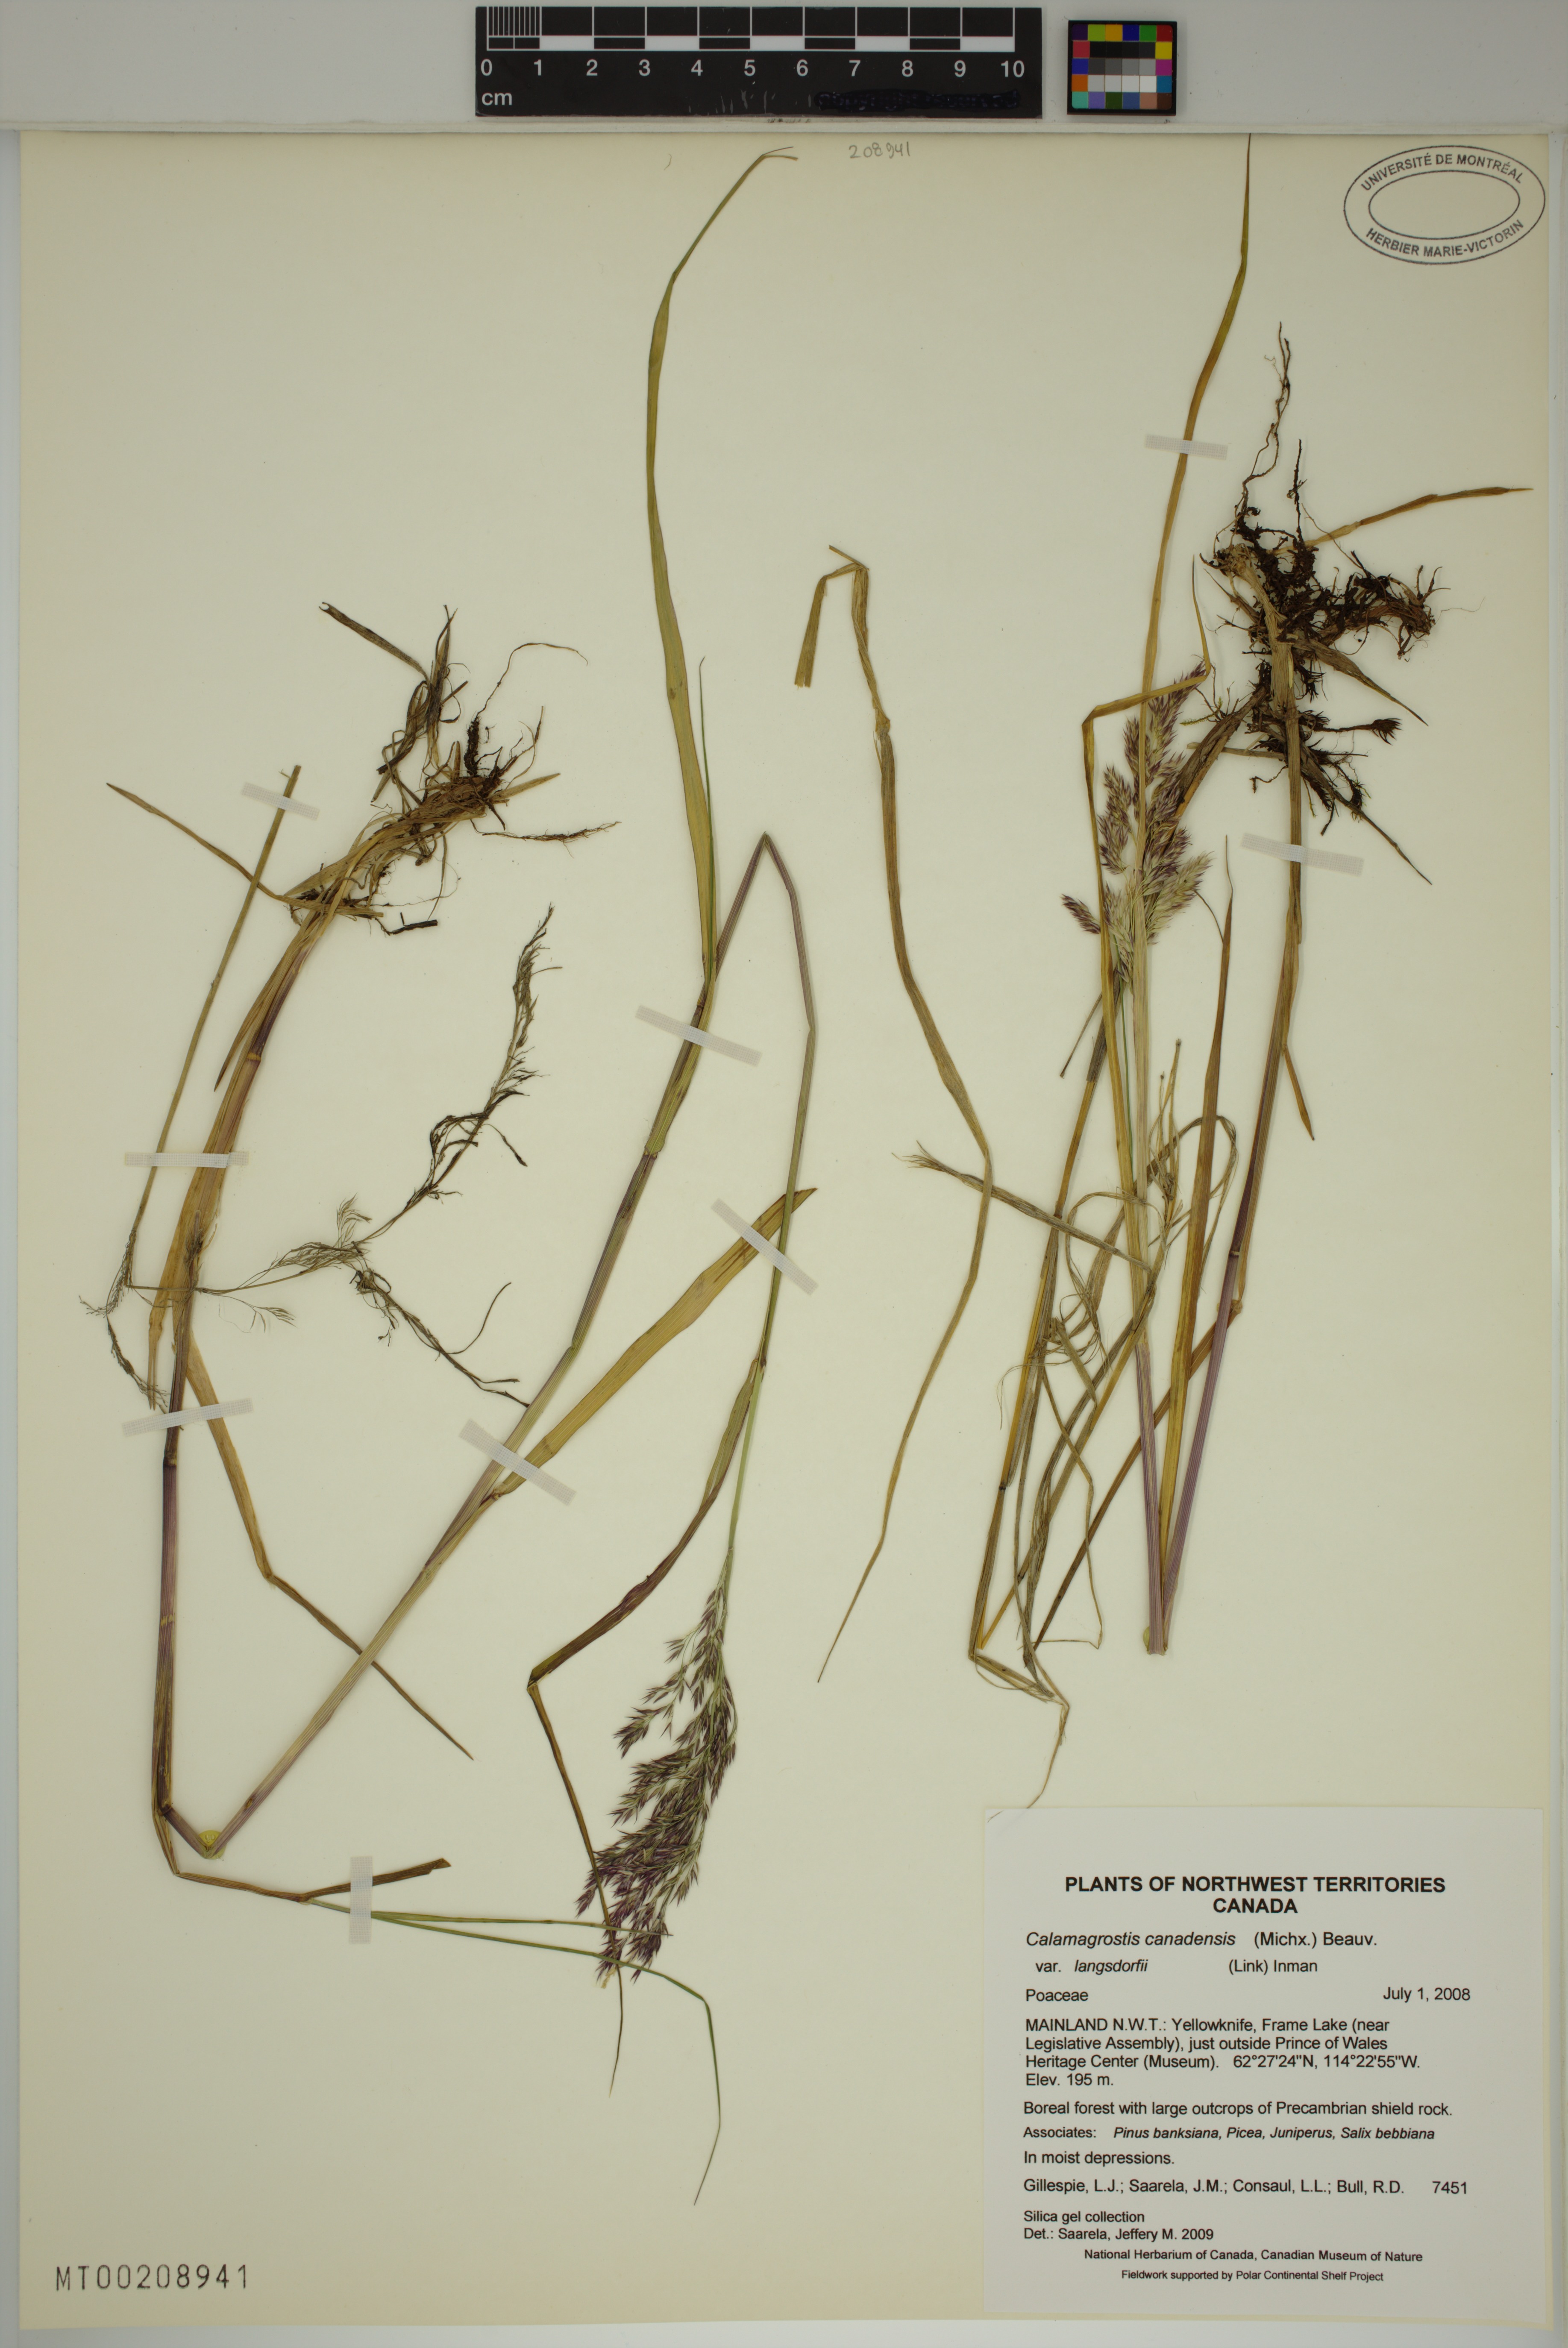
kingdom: Plantae
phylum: Tracheophyta
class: Liliopsida
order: Poales
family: Poaceae
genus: Calamagrostis
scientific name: Calamagrostis purpurea
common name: Scandinavian small-reed
